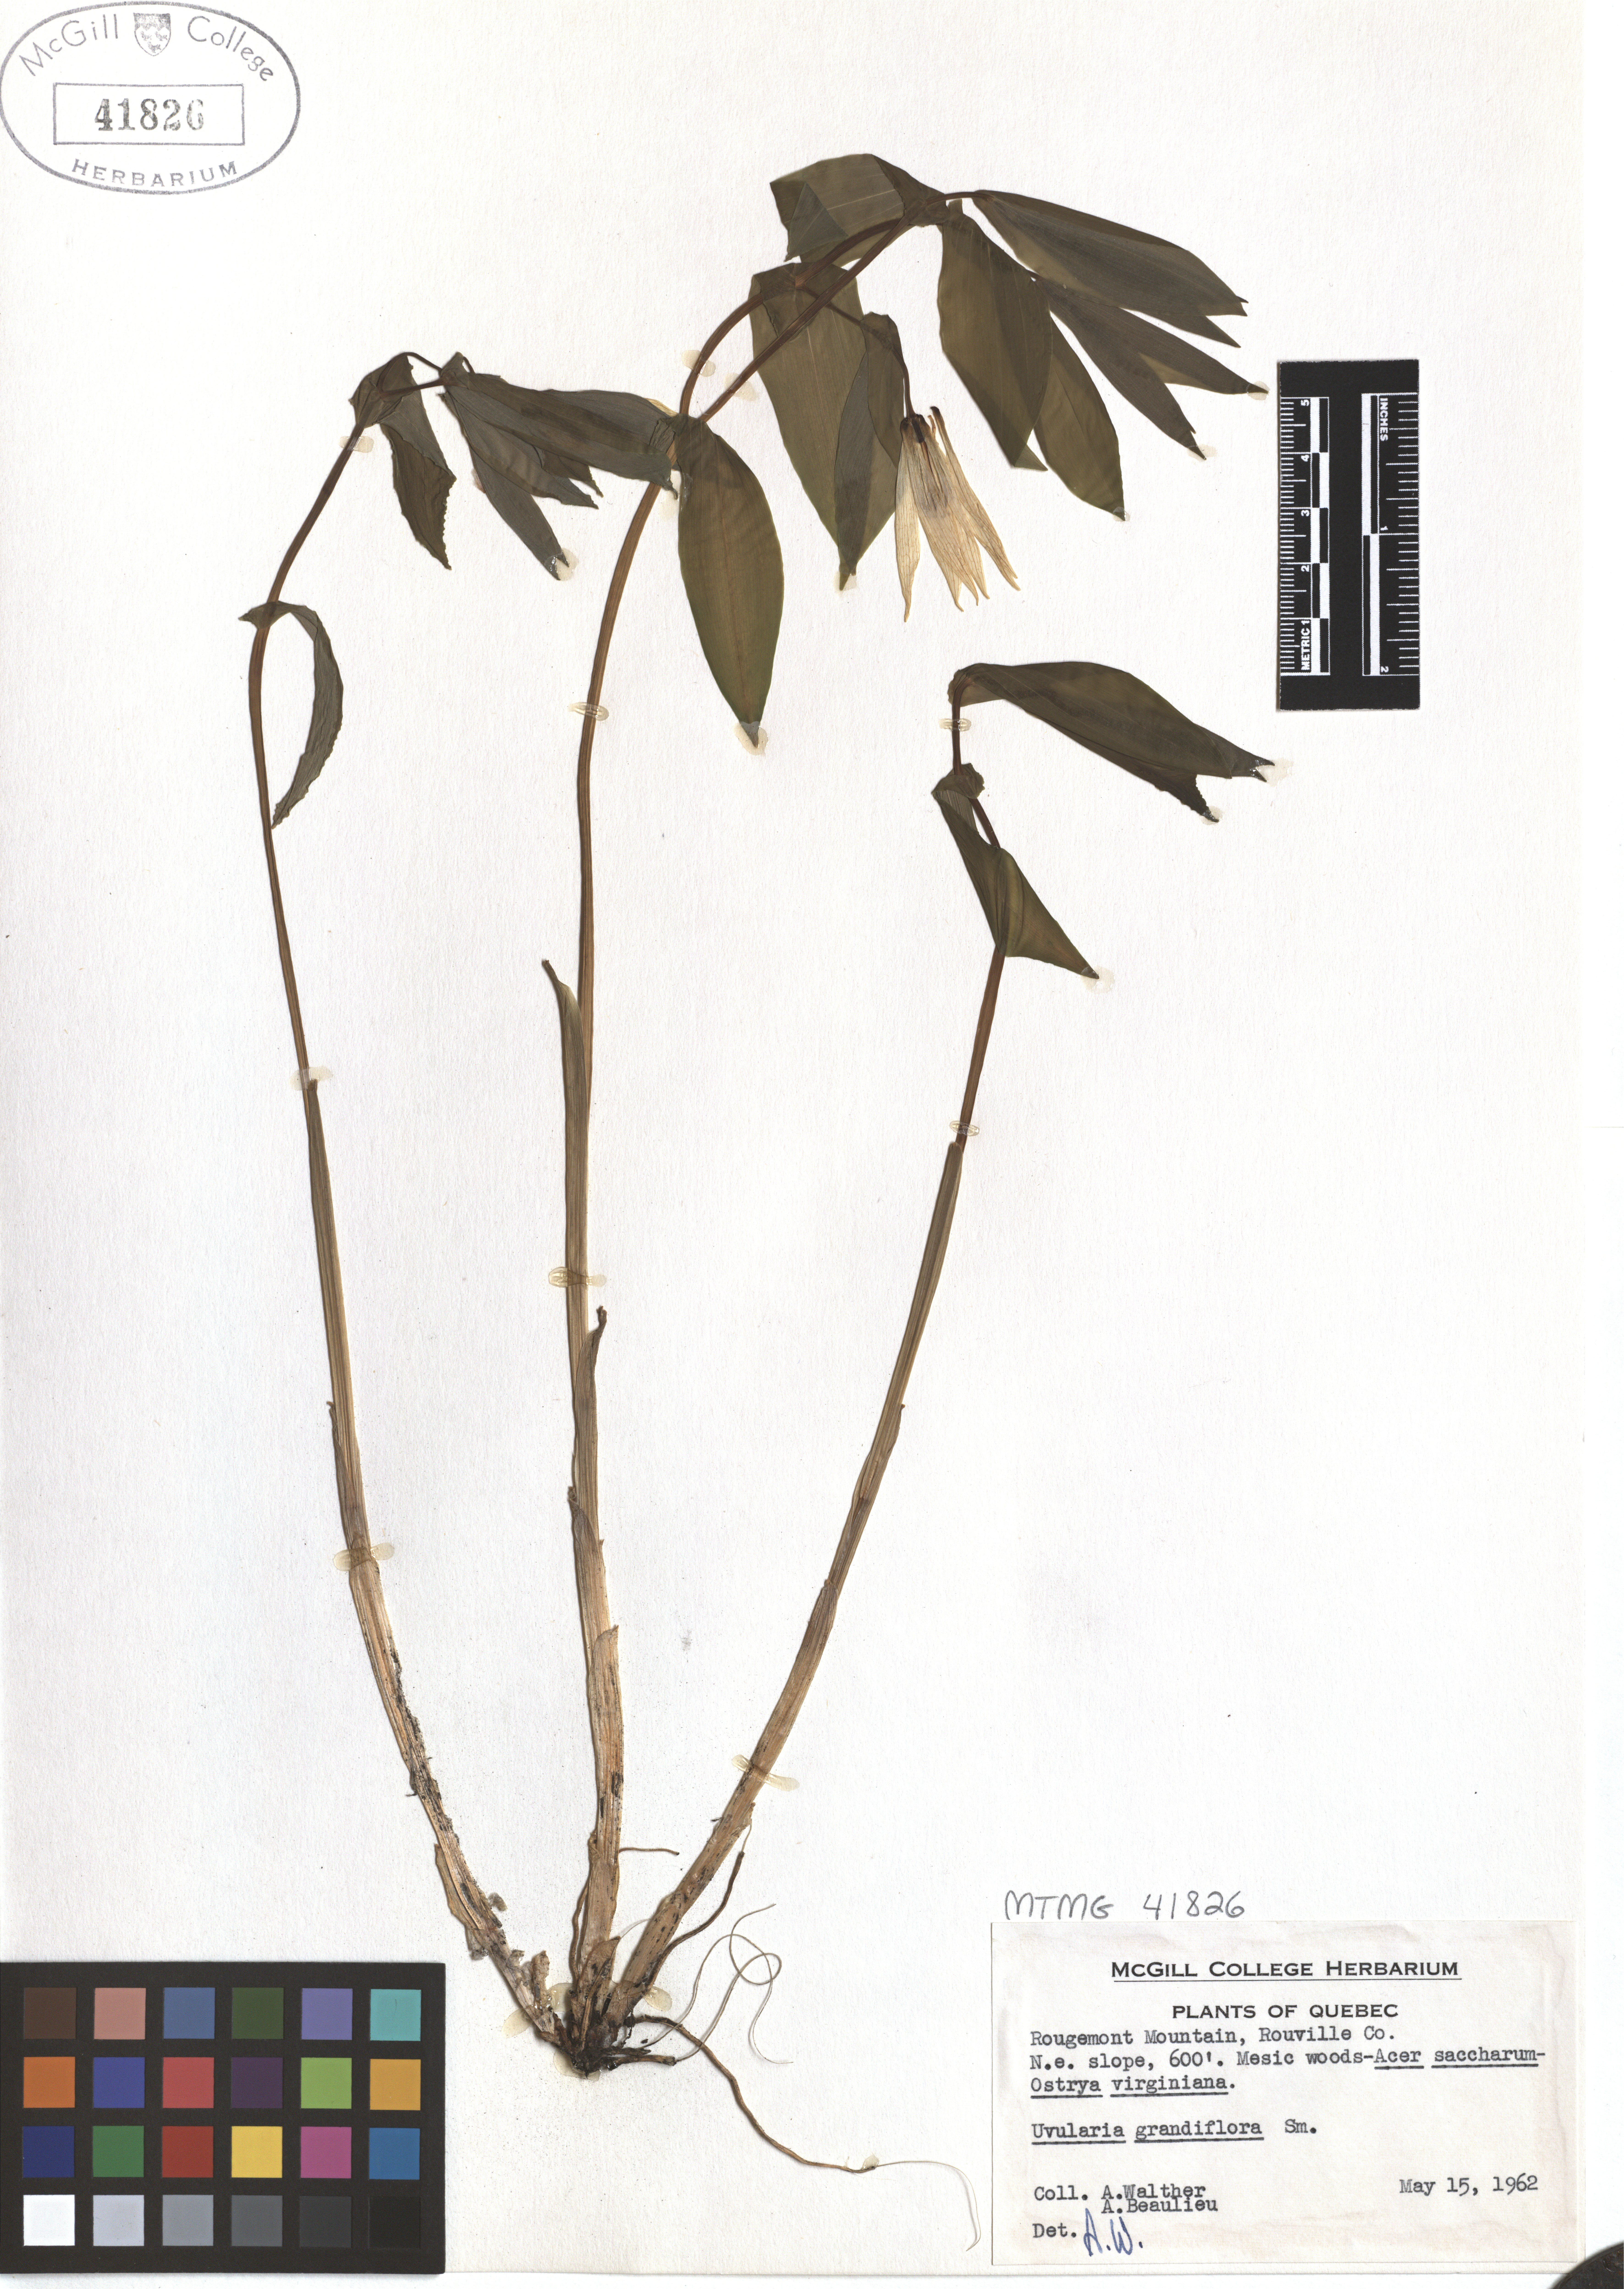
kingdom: Plantae
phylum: Tracheophyta
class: Liliopsida
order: Liliales
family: Colchicaceae
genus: Uvularia
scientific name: Uvularia grandiflora
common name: Bellwort
